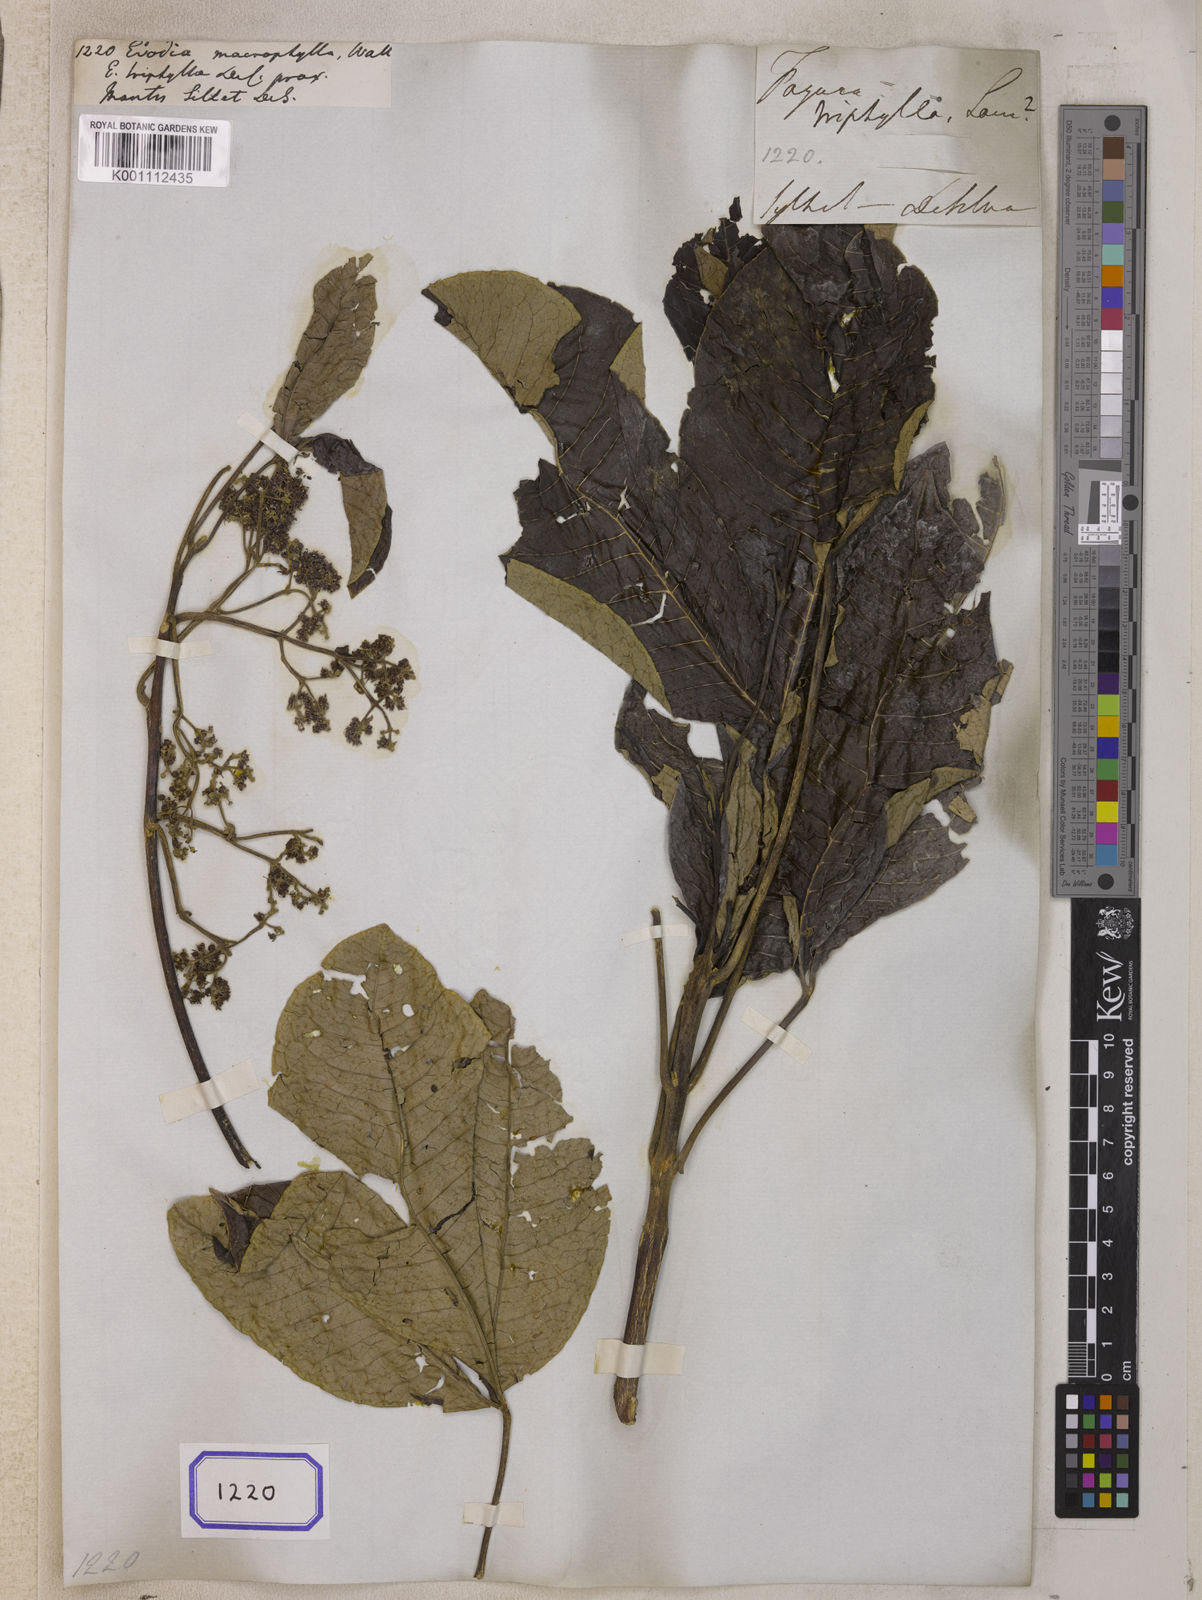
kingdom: Plantae
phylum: Tracheophyta
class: Magnoliopsida
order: Sapindales
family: Rutaceae
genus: Euodia
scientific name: Euodia
